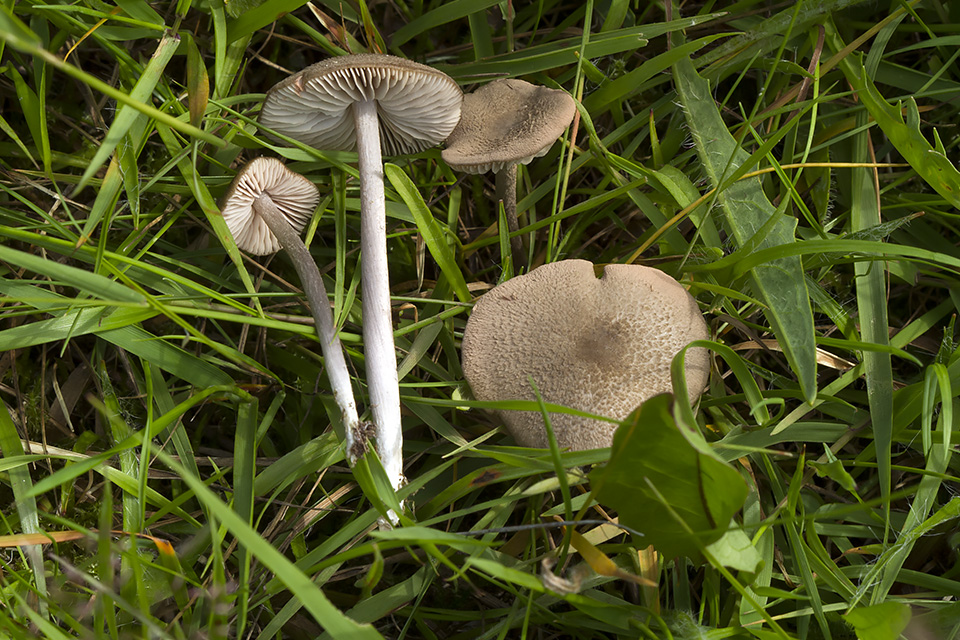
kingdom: Fungi
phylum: Basidiomycota
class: Agaricomycetes
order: Agaricales
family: Entolomataceae
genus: Entoloma
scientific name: Entoloma griseocyaneum
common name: gråblå rødblad
